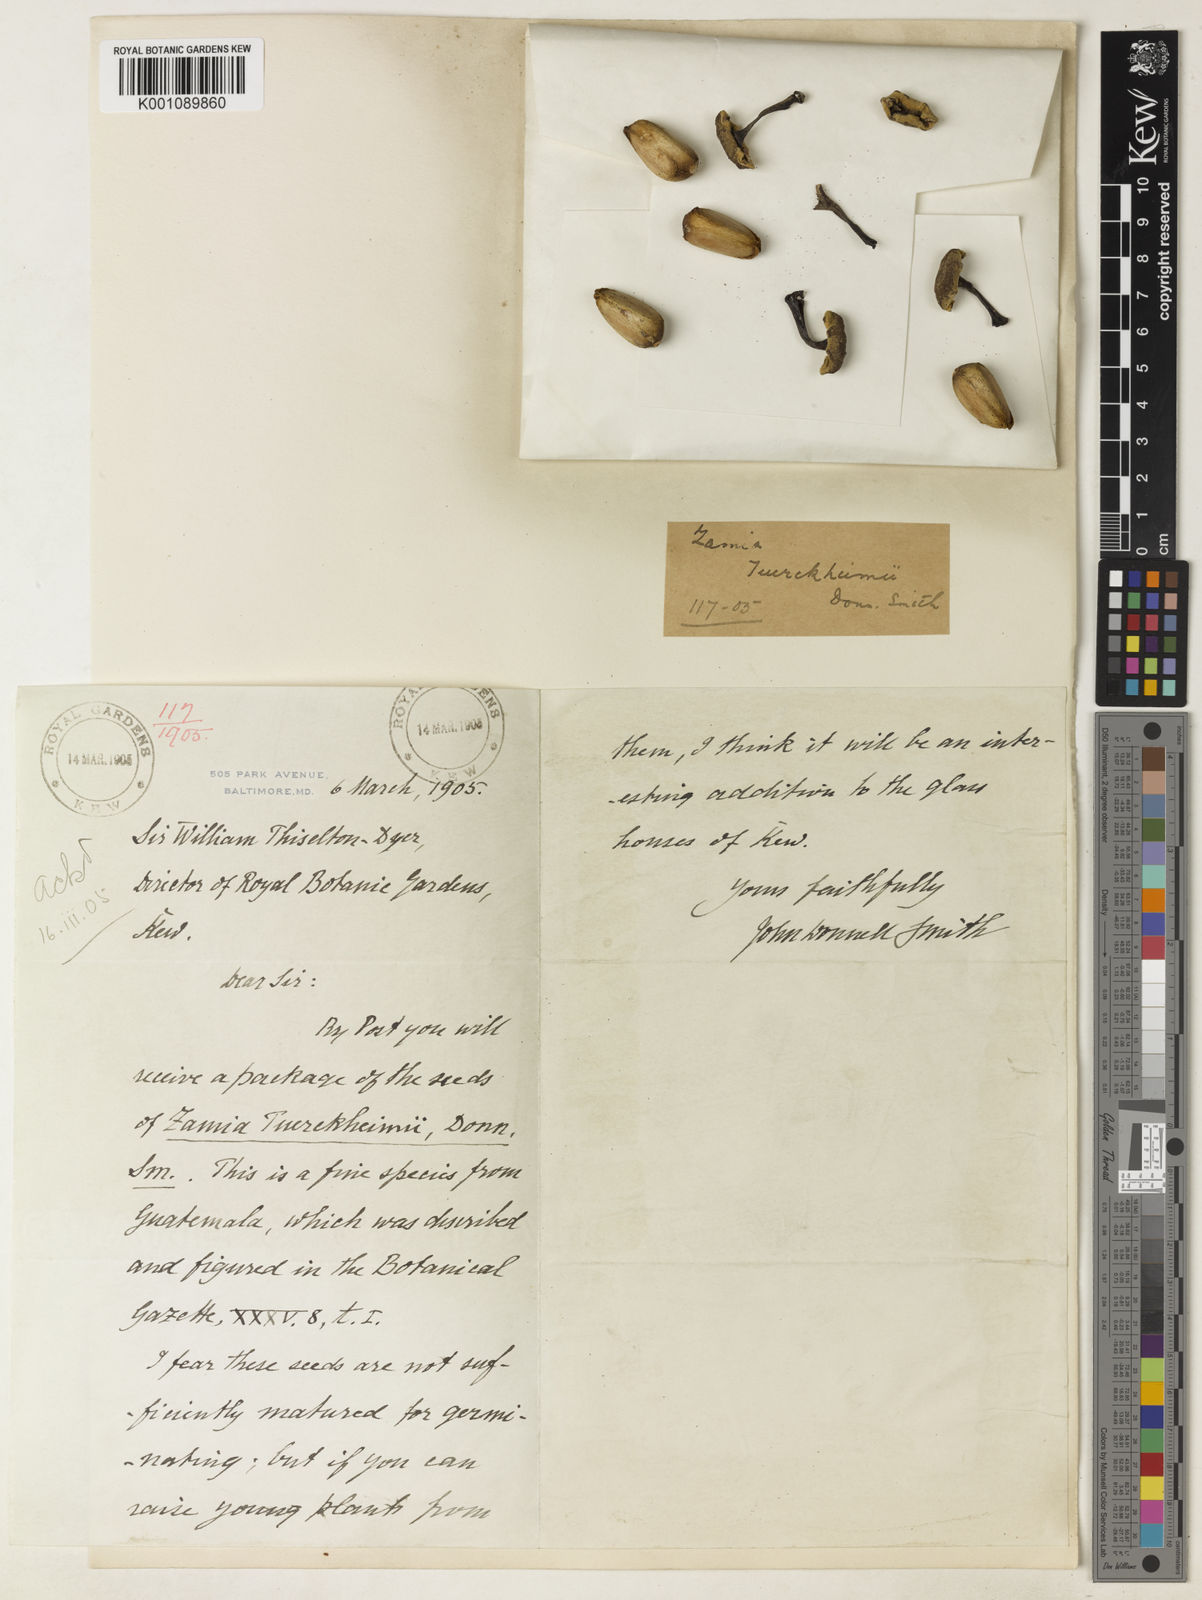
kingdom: Plantae
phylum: Tracheophyta
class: Cycadopsida
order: Cycadales
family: Zamiaceae
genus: Zamia
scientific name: Zamia tuerckheimii
